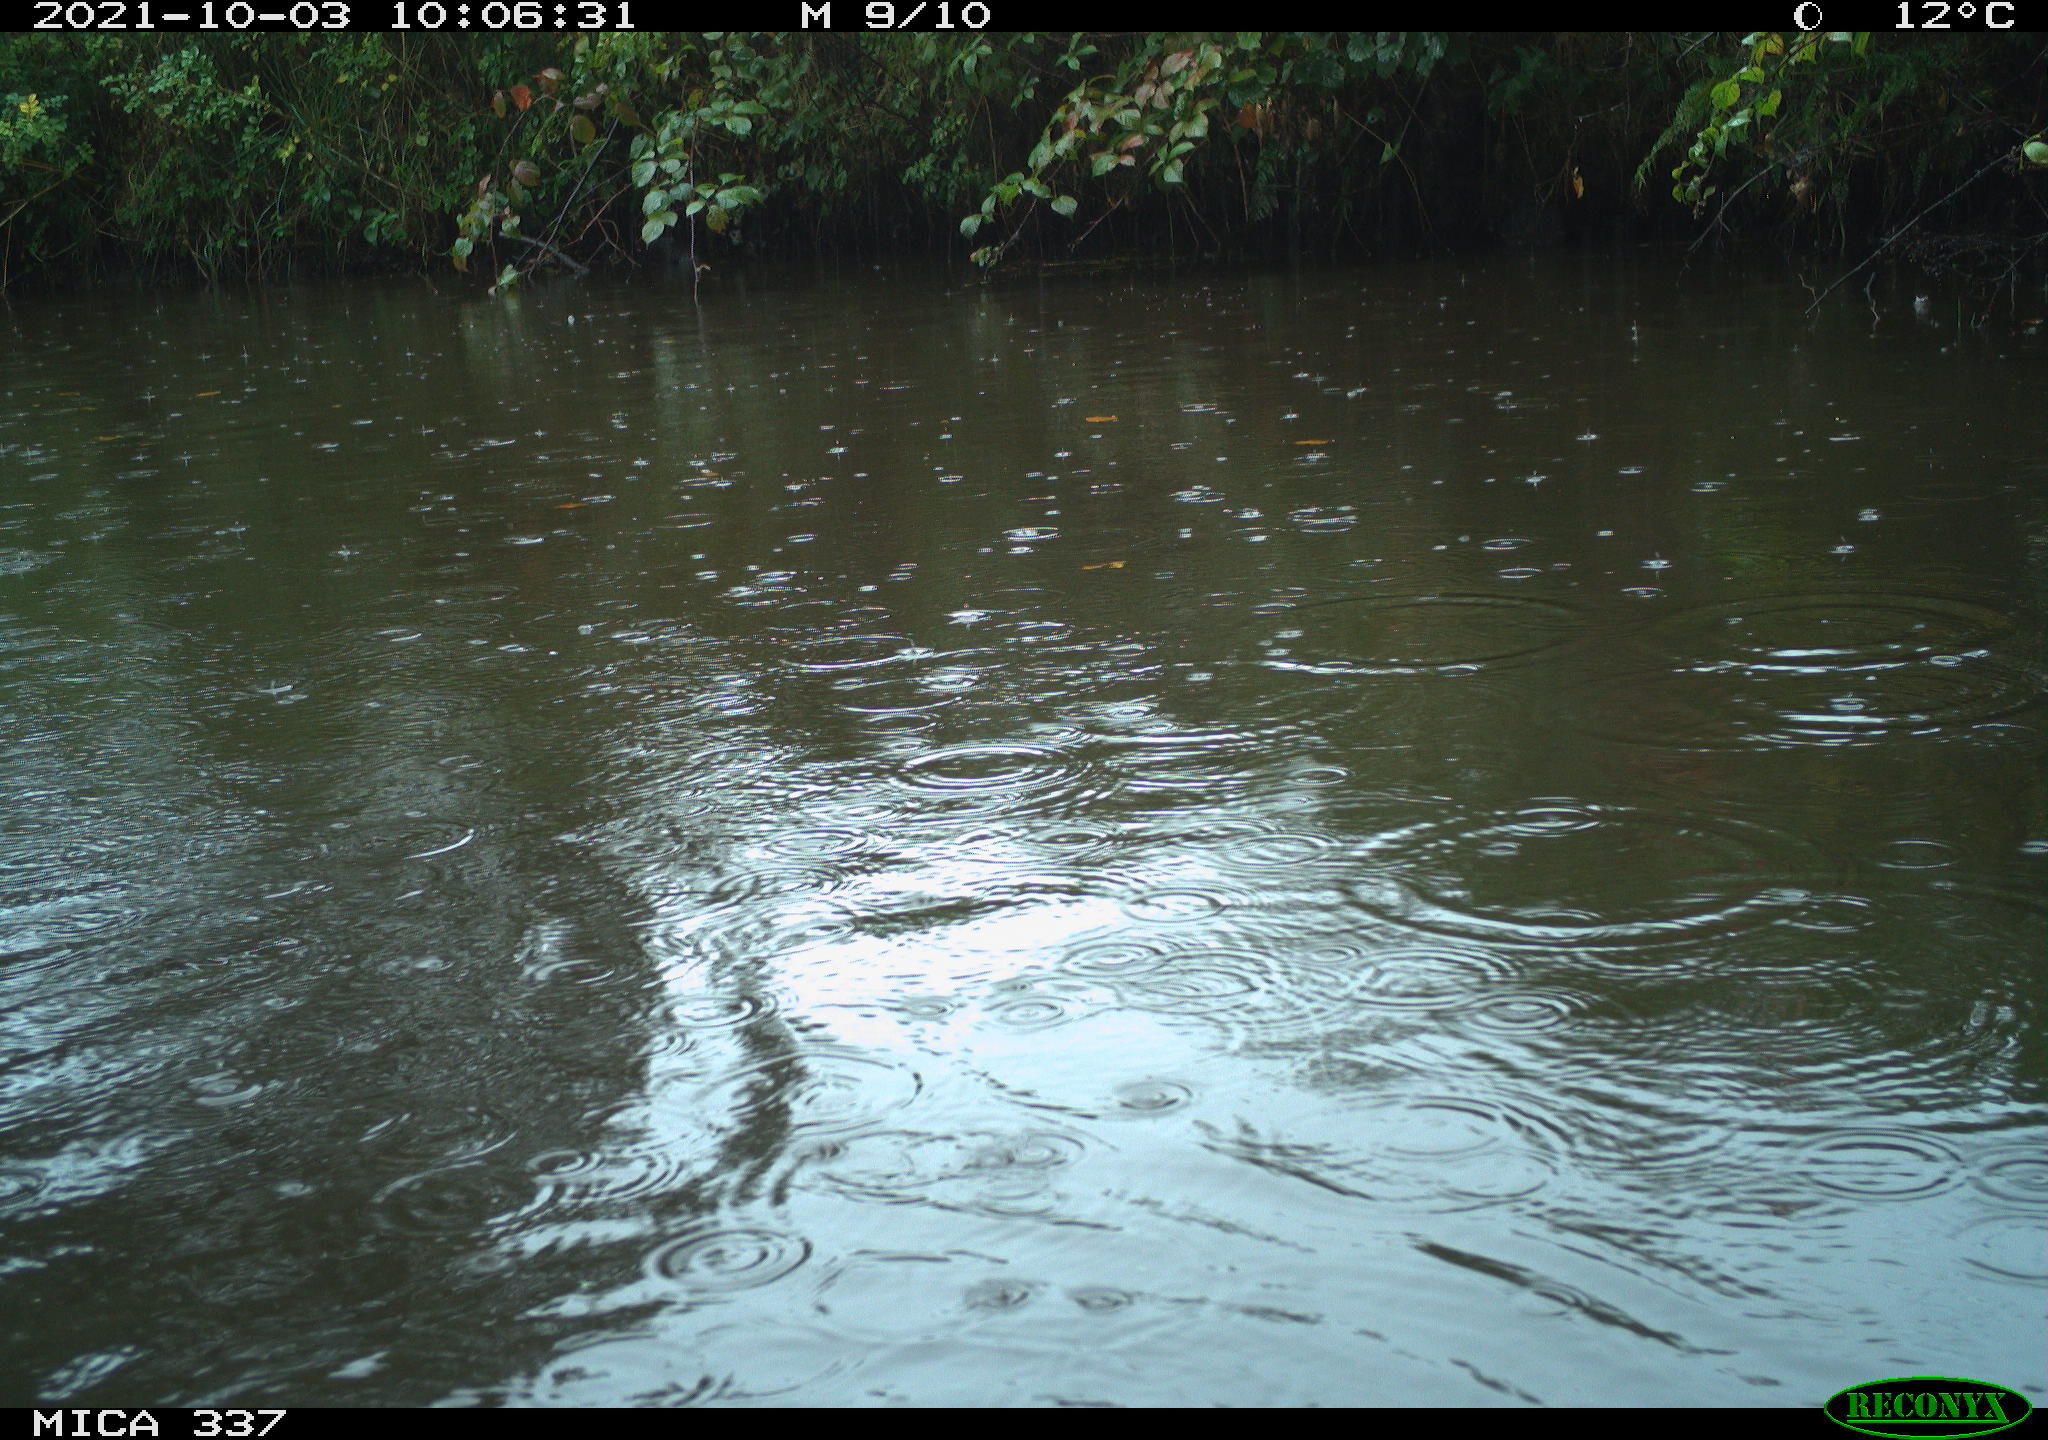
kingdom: Animalia
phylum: Chordata
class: Aves
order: Anseriformes
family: Anatidae
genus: Anas
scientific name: Anas platyrhynchos
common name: Mallard
